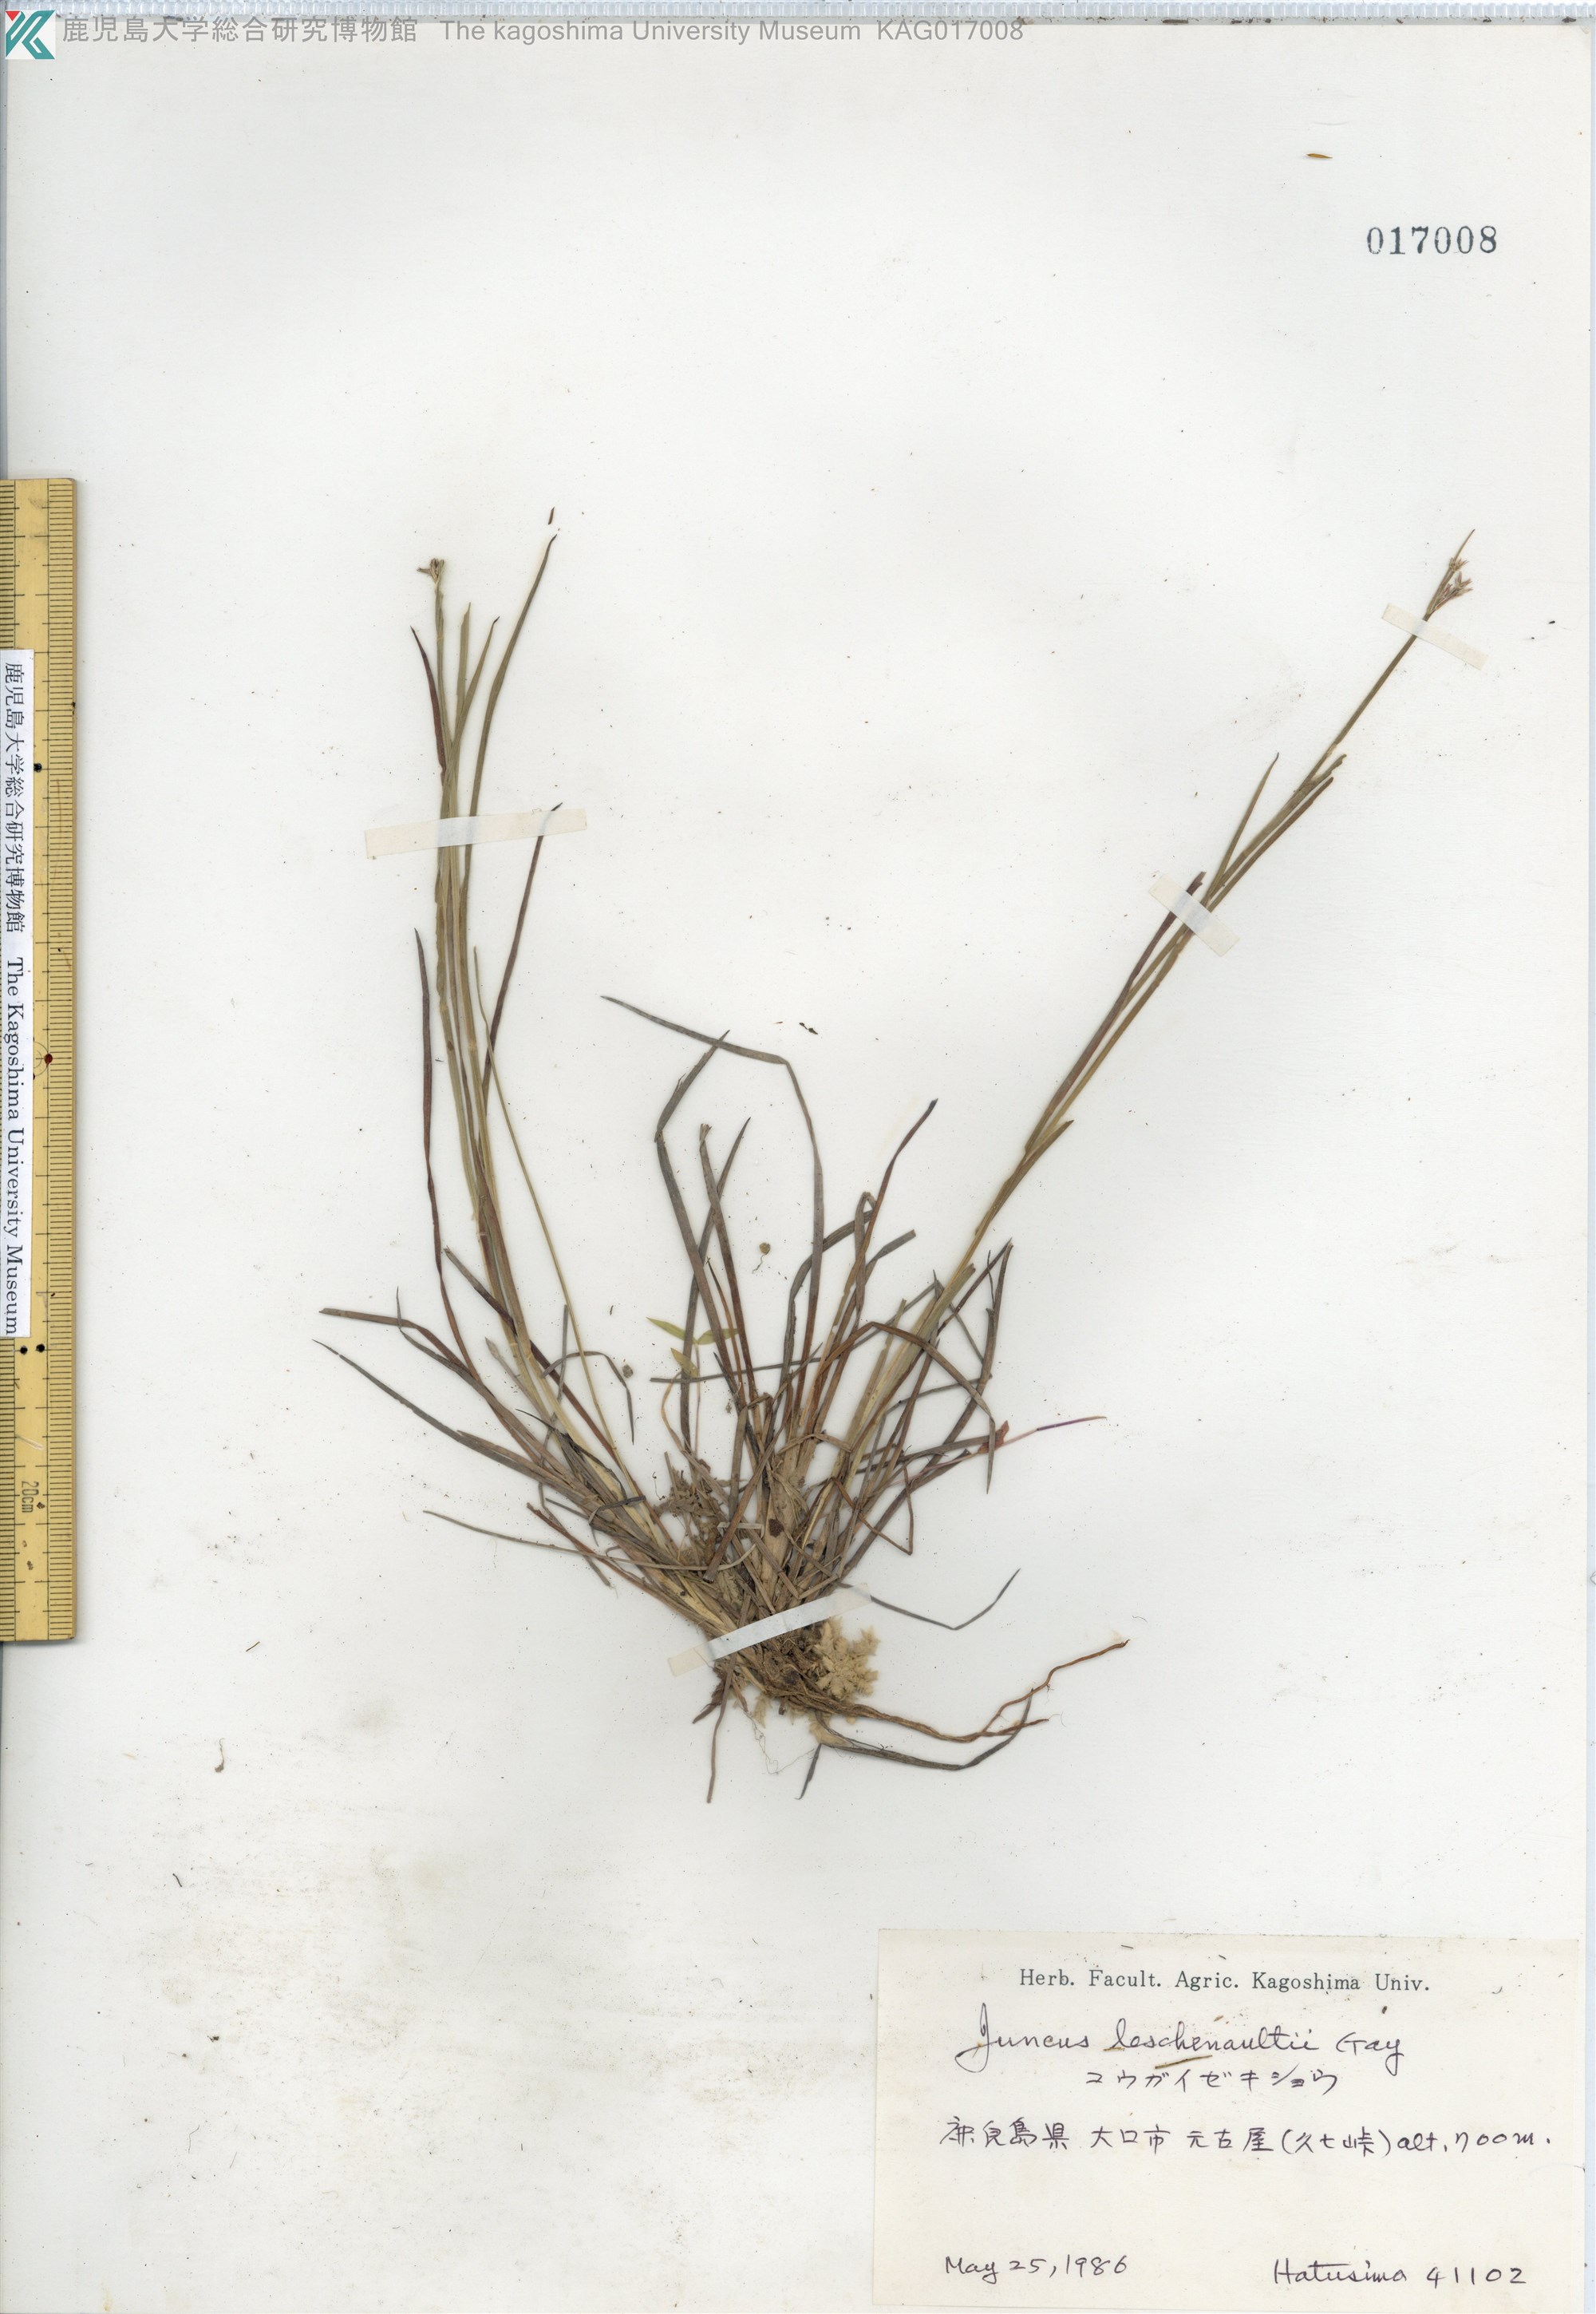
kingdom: Plantae
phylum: Tracheophyta
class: Liliopsida
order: Poales
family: Juncaceae
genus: Juncus
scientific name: Juncus prismatocarpus
